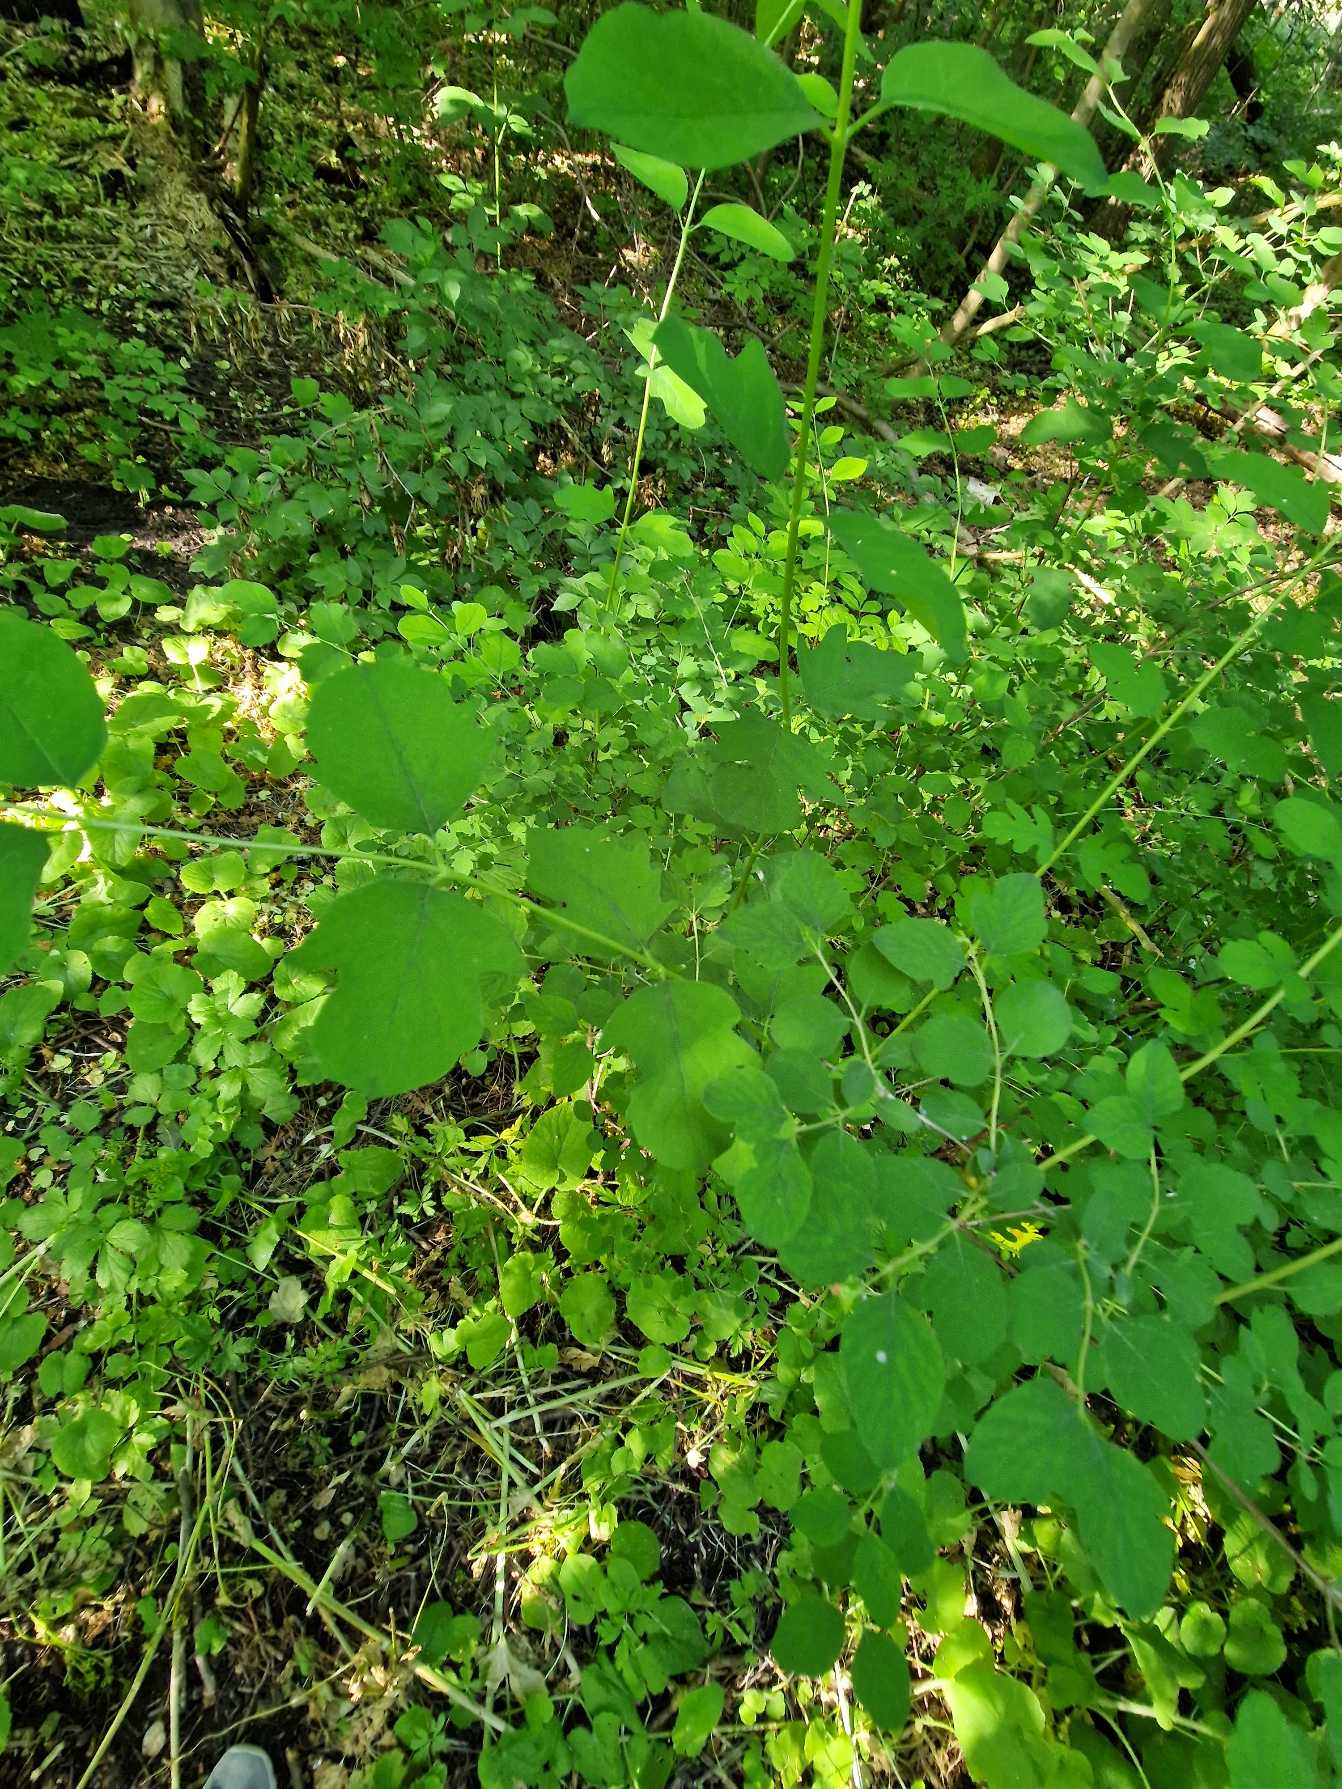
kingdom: Plantae
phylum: Tracheophyta
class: Magnoliopsida
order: Dipsacales
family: Caprifoliaceae
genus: Symphoricarpos
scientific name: Symphoricarpos albus
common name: Almindelig snebær
